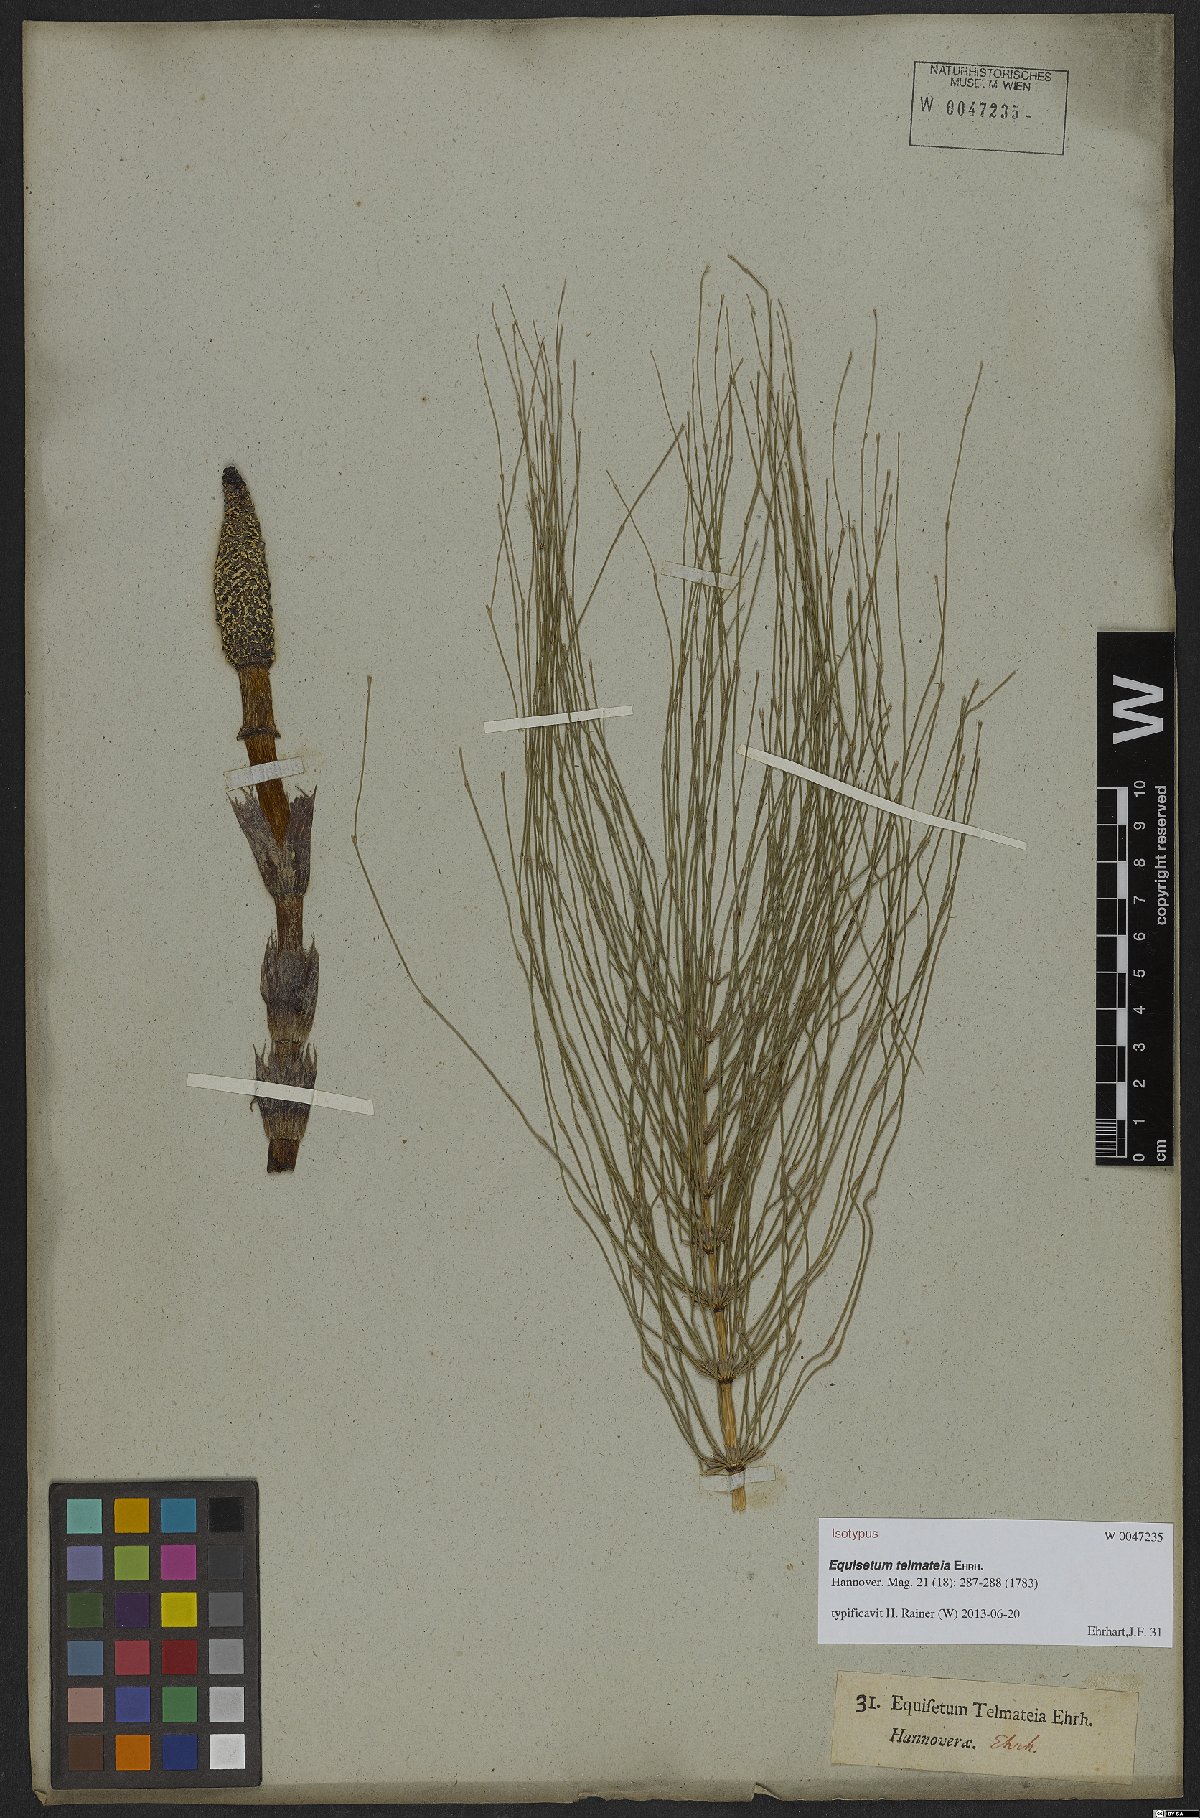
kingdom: Plantae
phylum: Tracheophyta
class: Polypodiopsida
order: Equisetales
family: Equisetaceae
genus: Equisetum
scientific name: Equisetum telmateia
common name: Great horsetail
